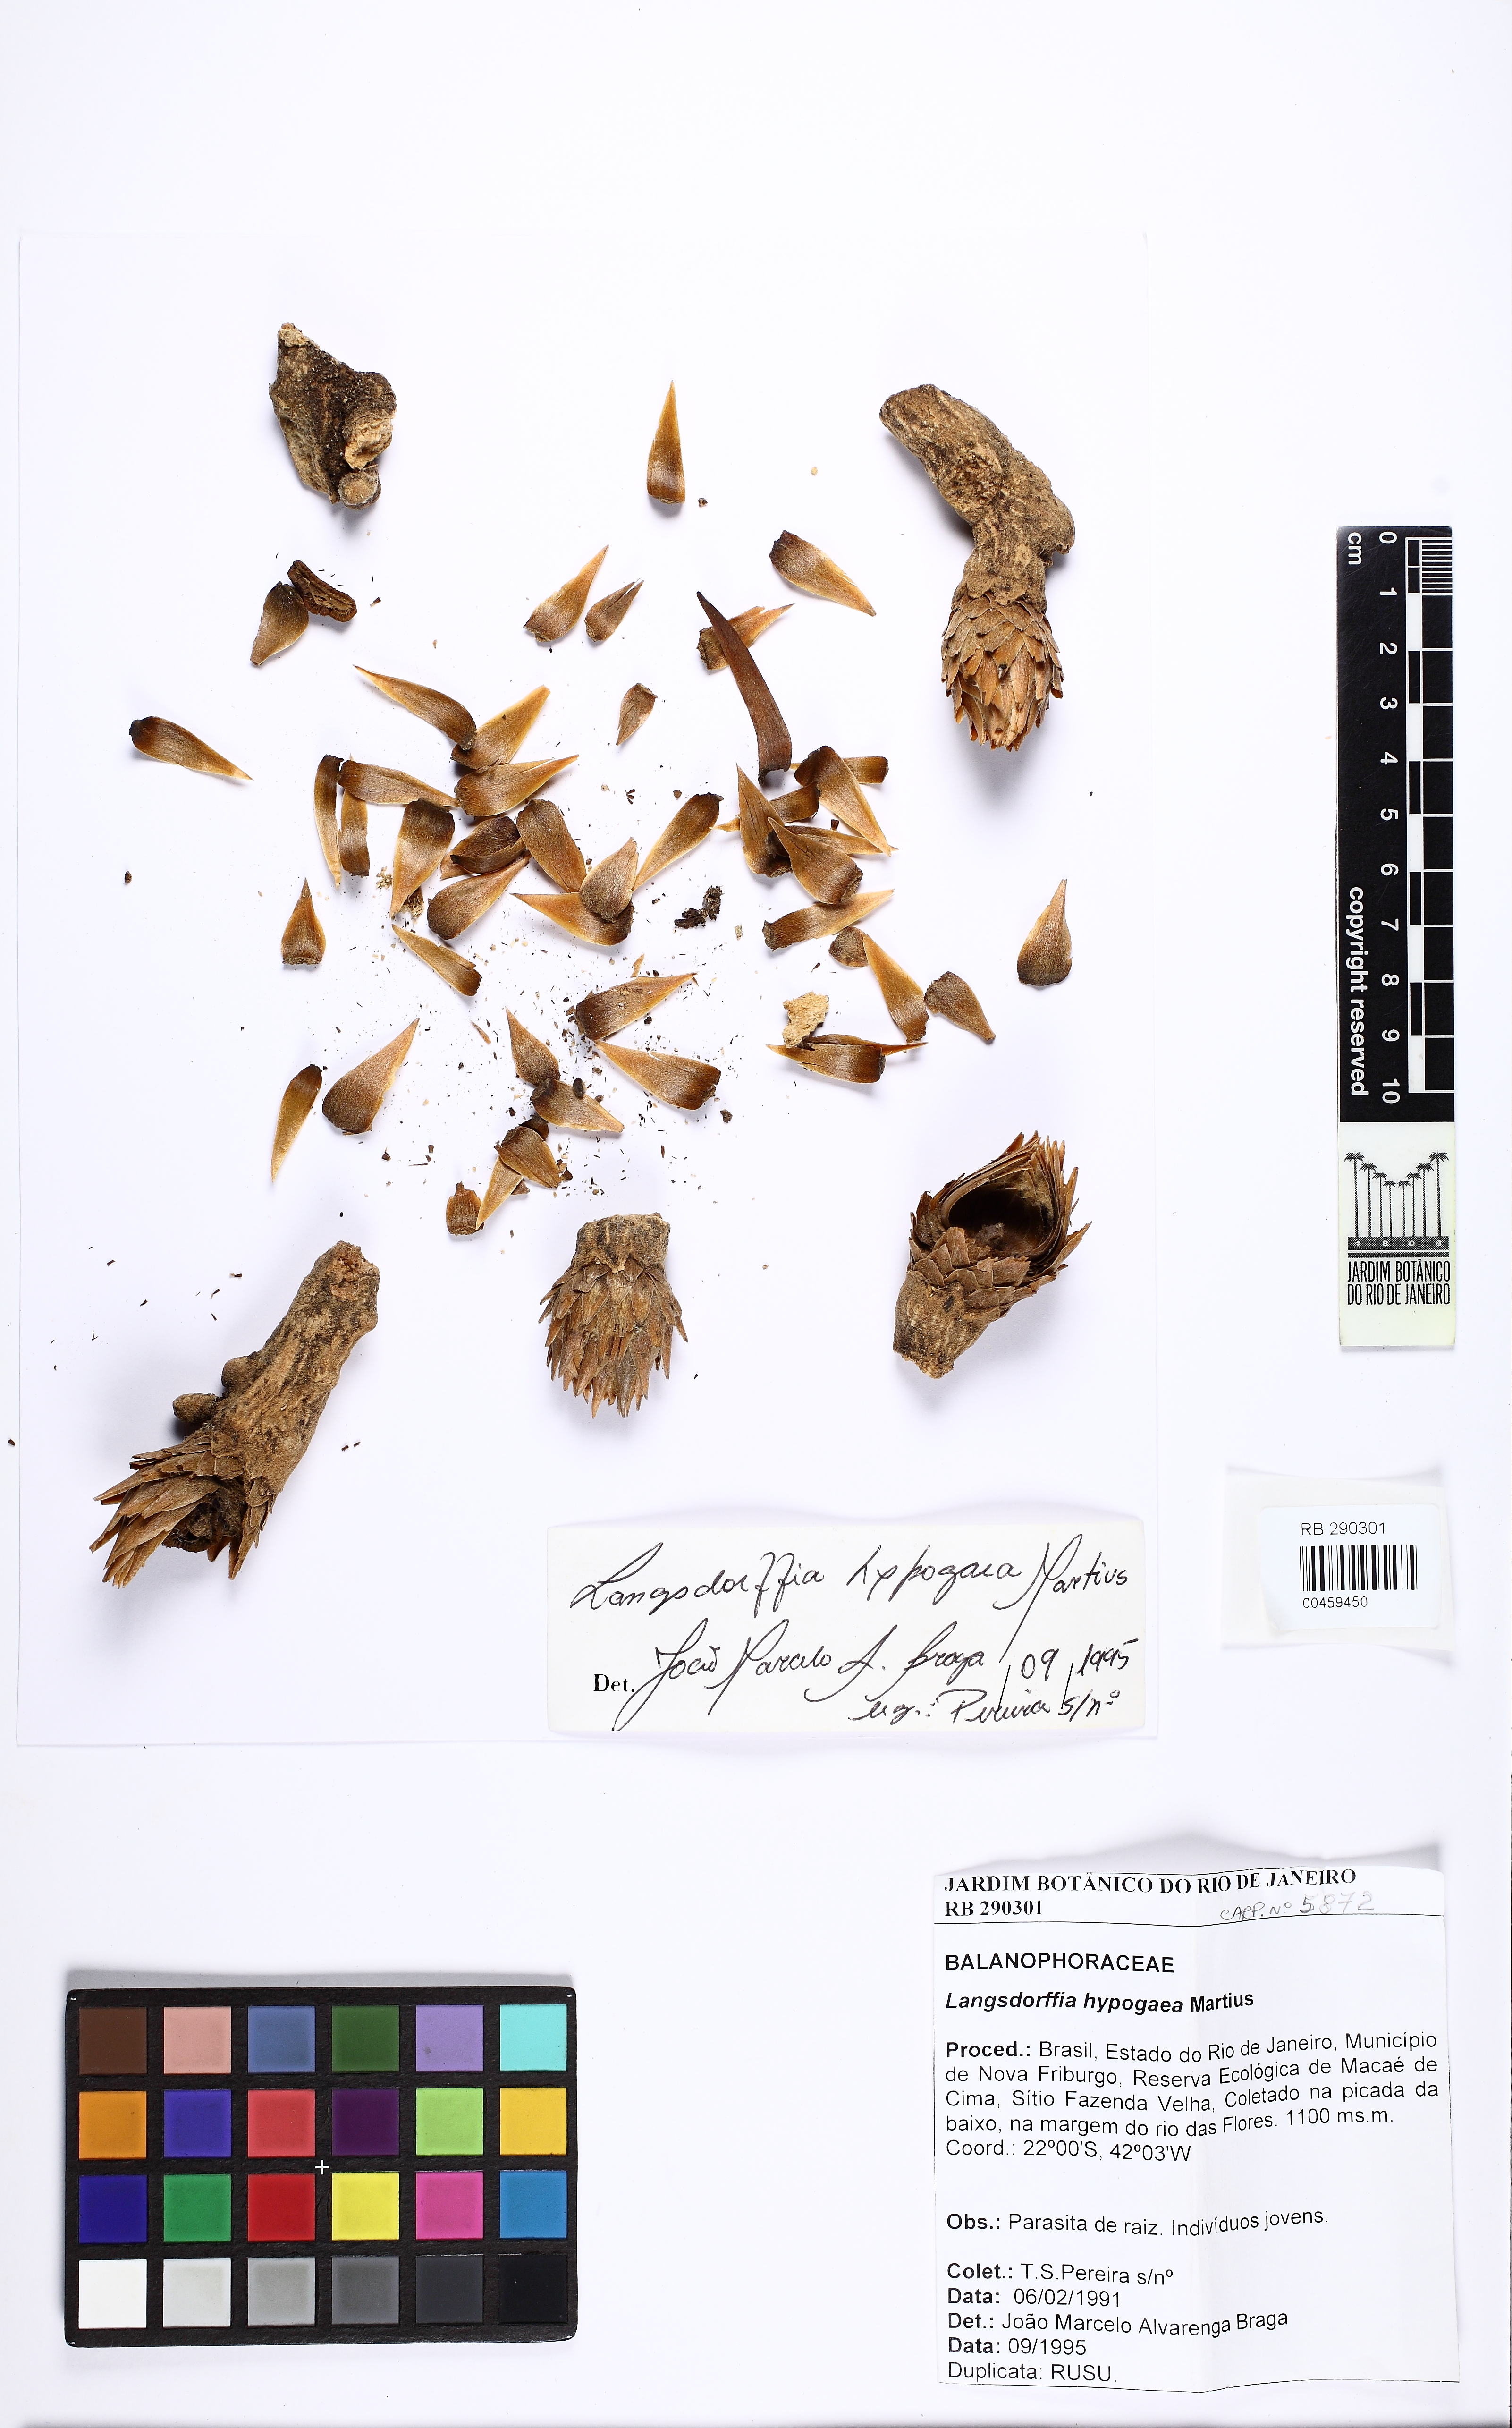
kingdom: Plantae
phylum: Tracheophyta
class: Magnoliopsida
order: Santalales
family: Balanophoraceae
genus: Langsdorffia
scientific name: Langsdorffia hypogaea
